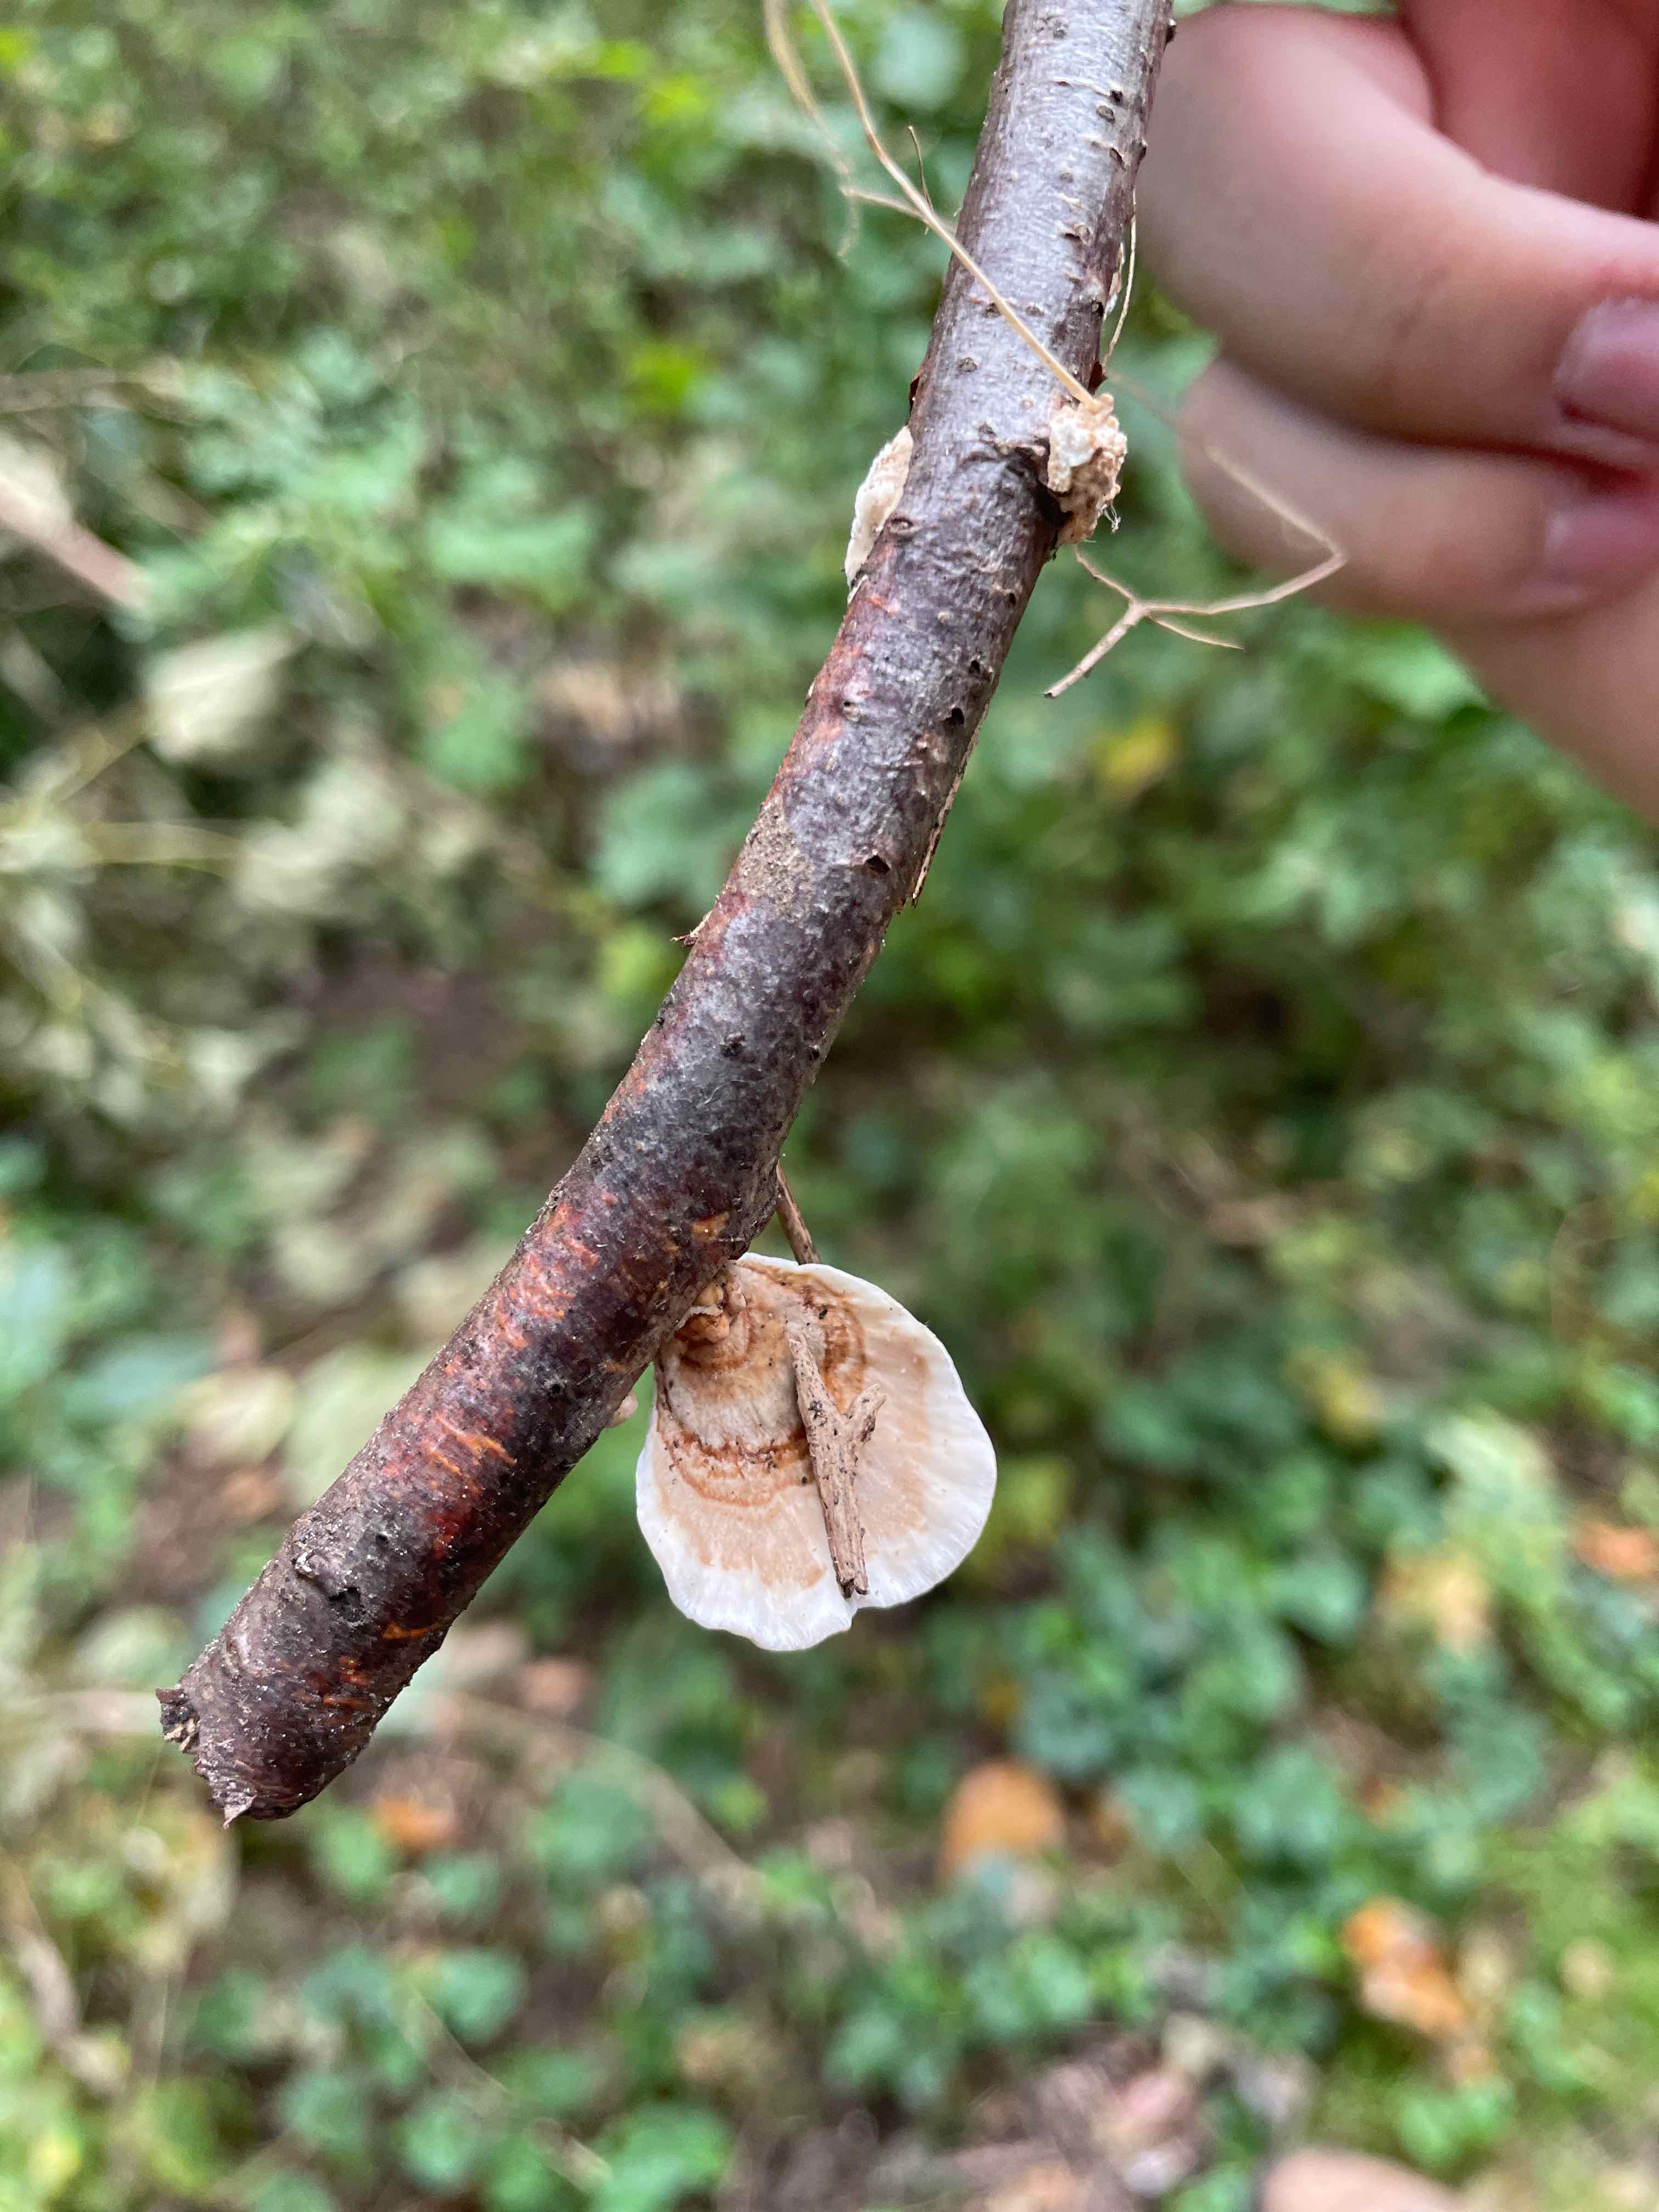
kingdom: Fungi
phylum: Basidiomycota
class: Agaricomycetes
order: Polyporales
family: Polyporaceae
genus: Trametes
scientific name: Trametes
